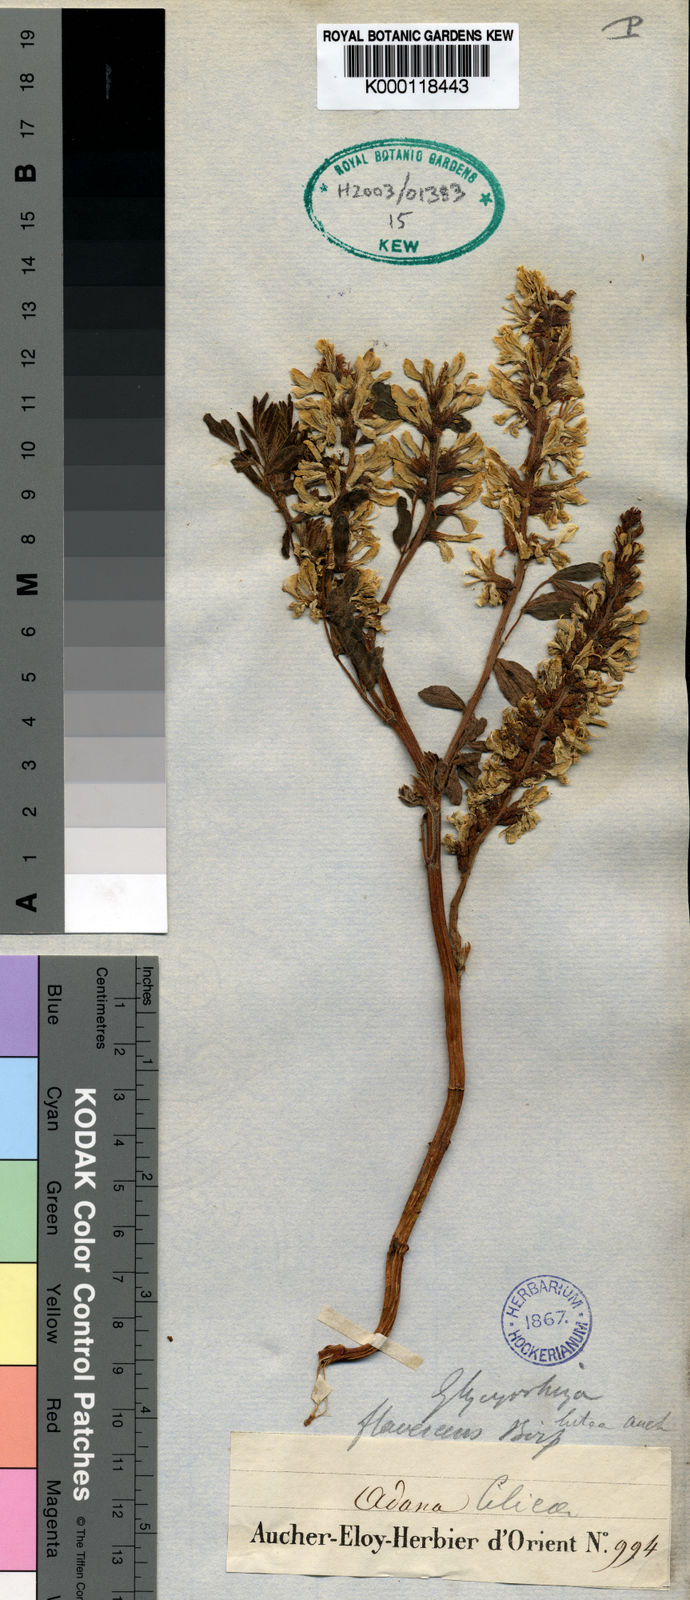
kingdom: Plantae
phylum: Tracheophyta
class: Magnoliopsida
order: Fabales
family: Fabaceae
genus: Glycyrrhizopsis
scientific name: Glycyrrhizopsis flavescens
